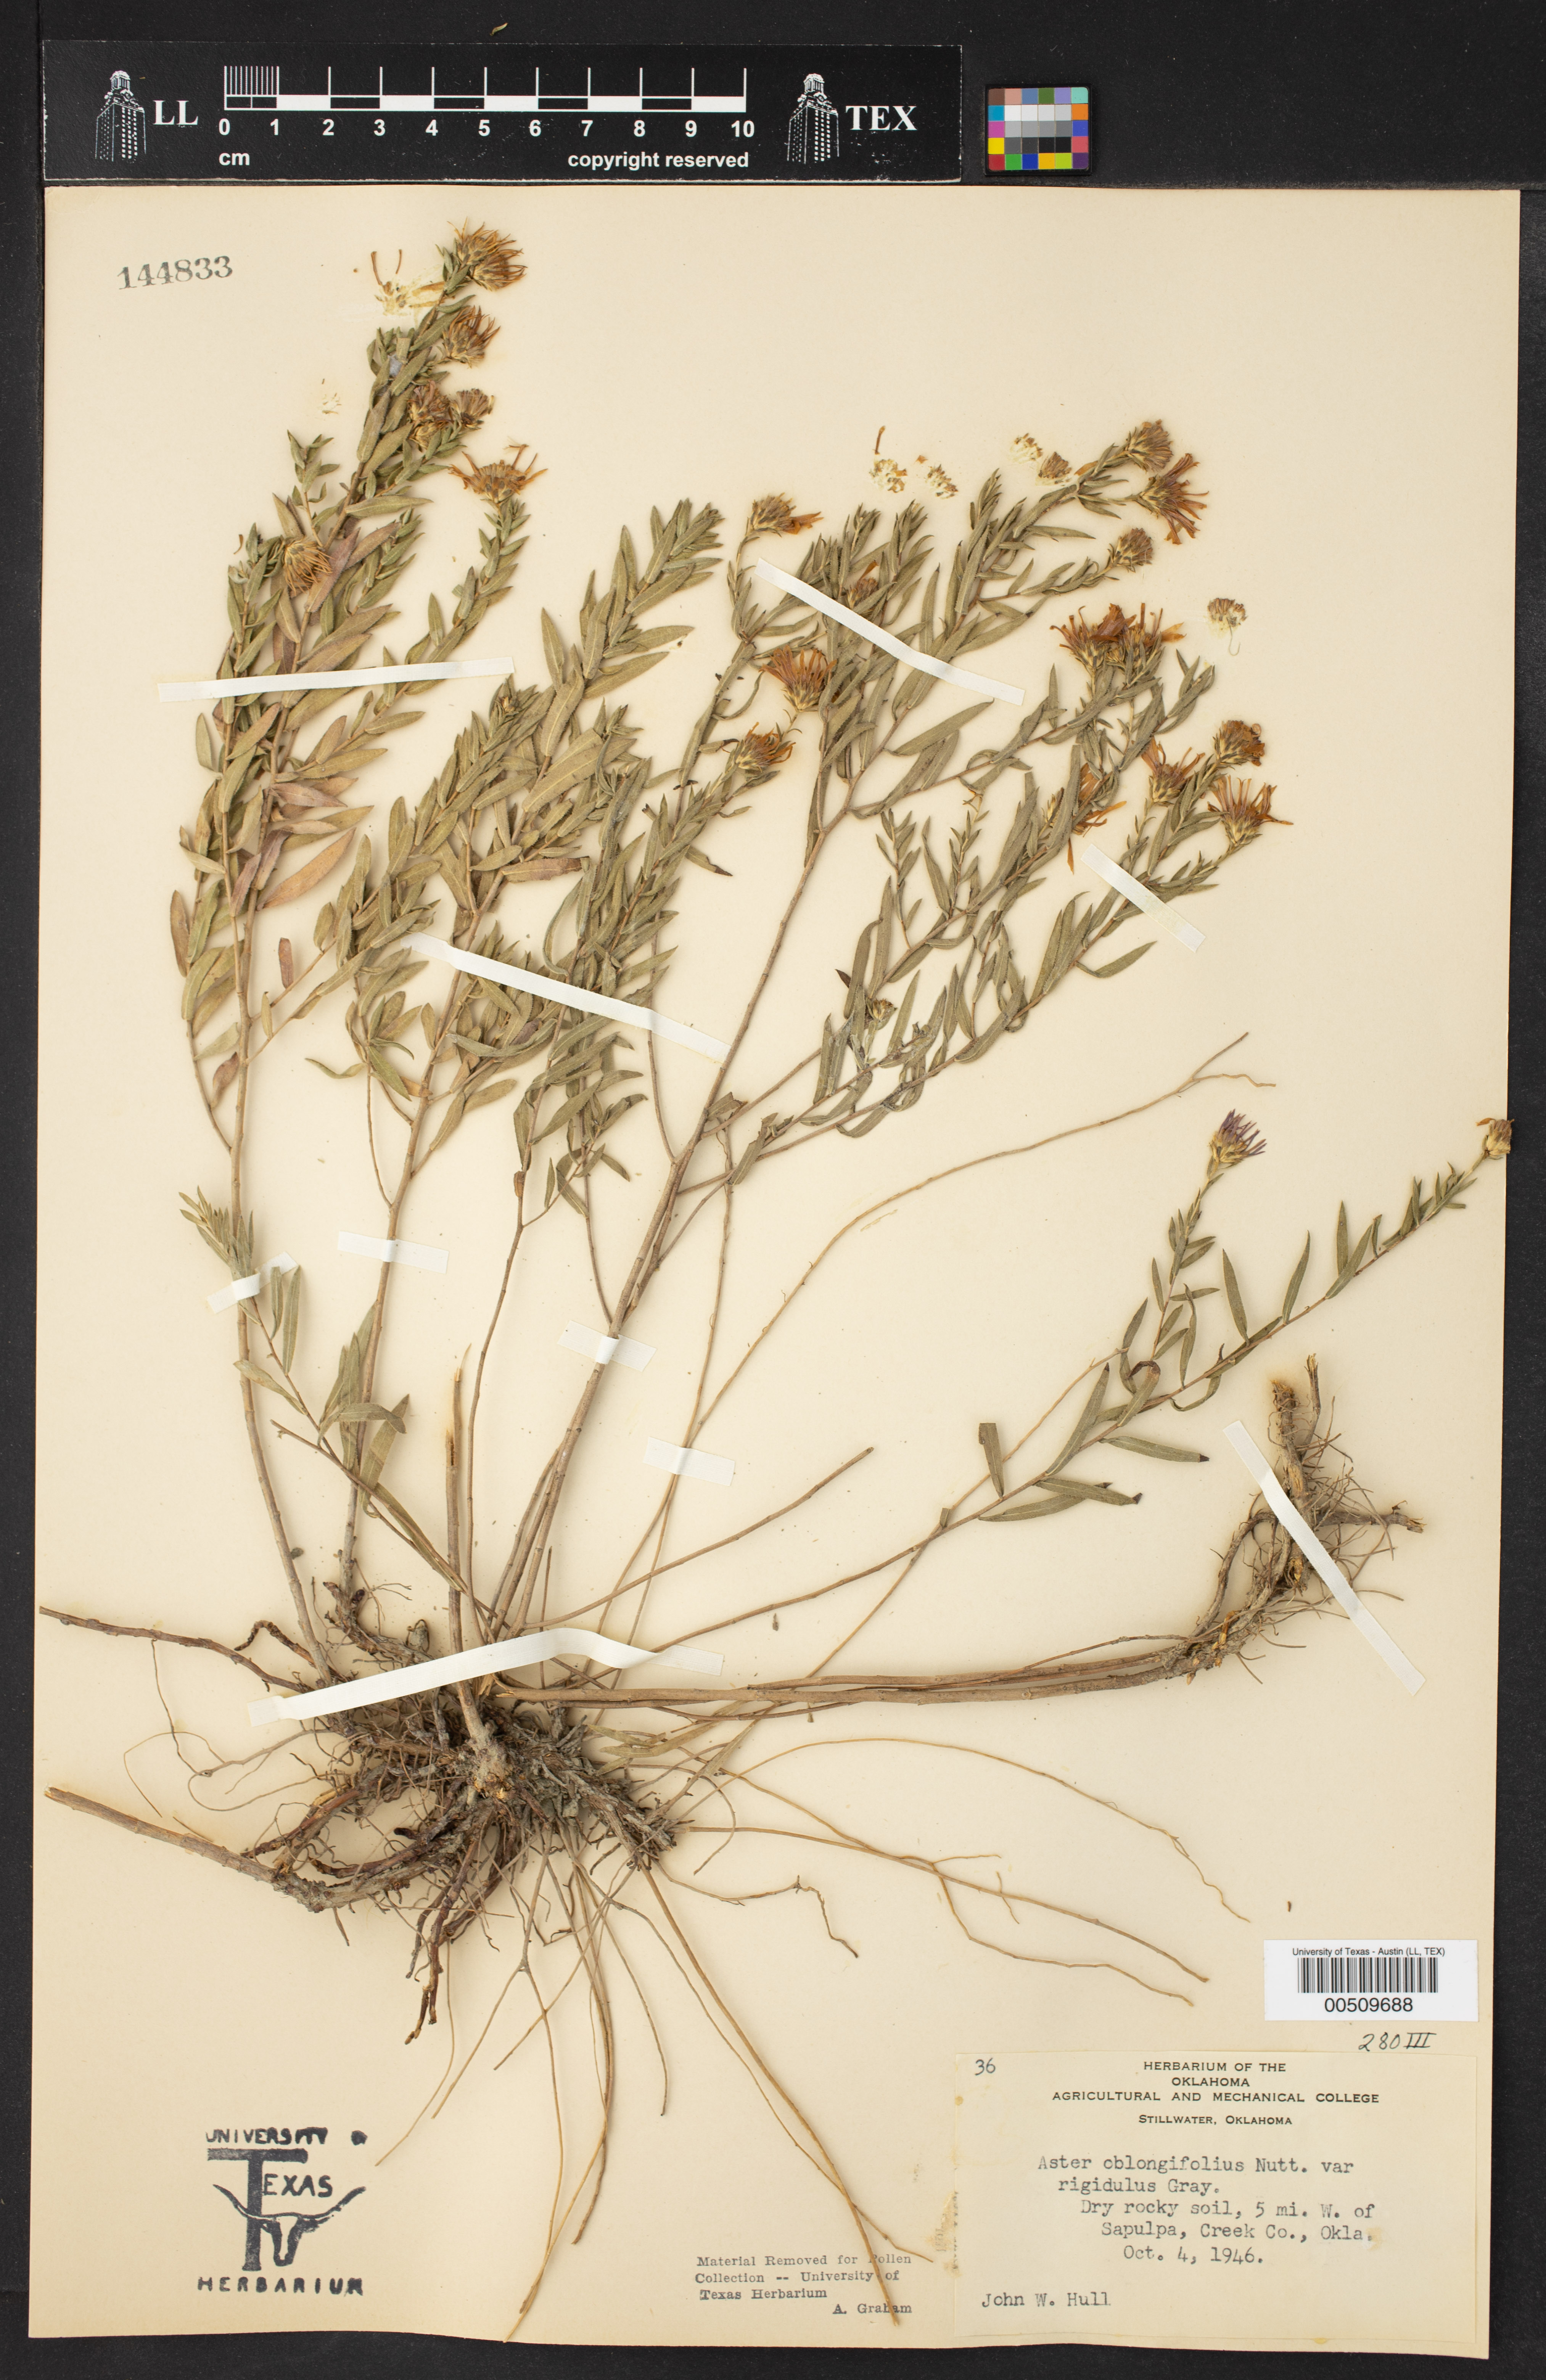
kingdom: Plantae
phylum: Tracheophyta
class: Magnoliopsida
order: Asterales
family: Asteraceae
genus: Symphyotrichum
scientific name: Symphyotrichum oblongifolium
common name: Aromatic aster
